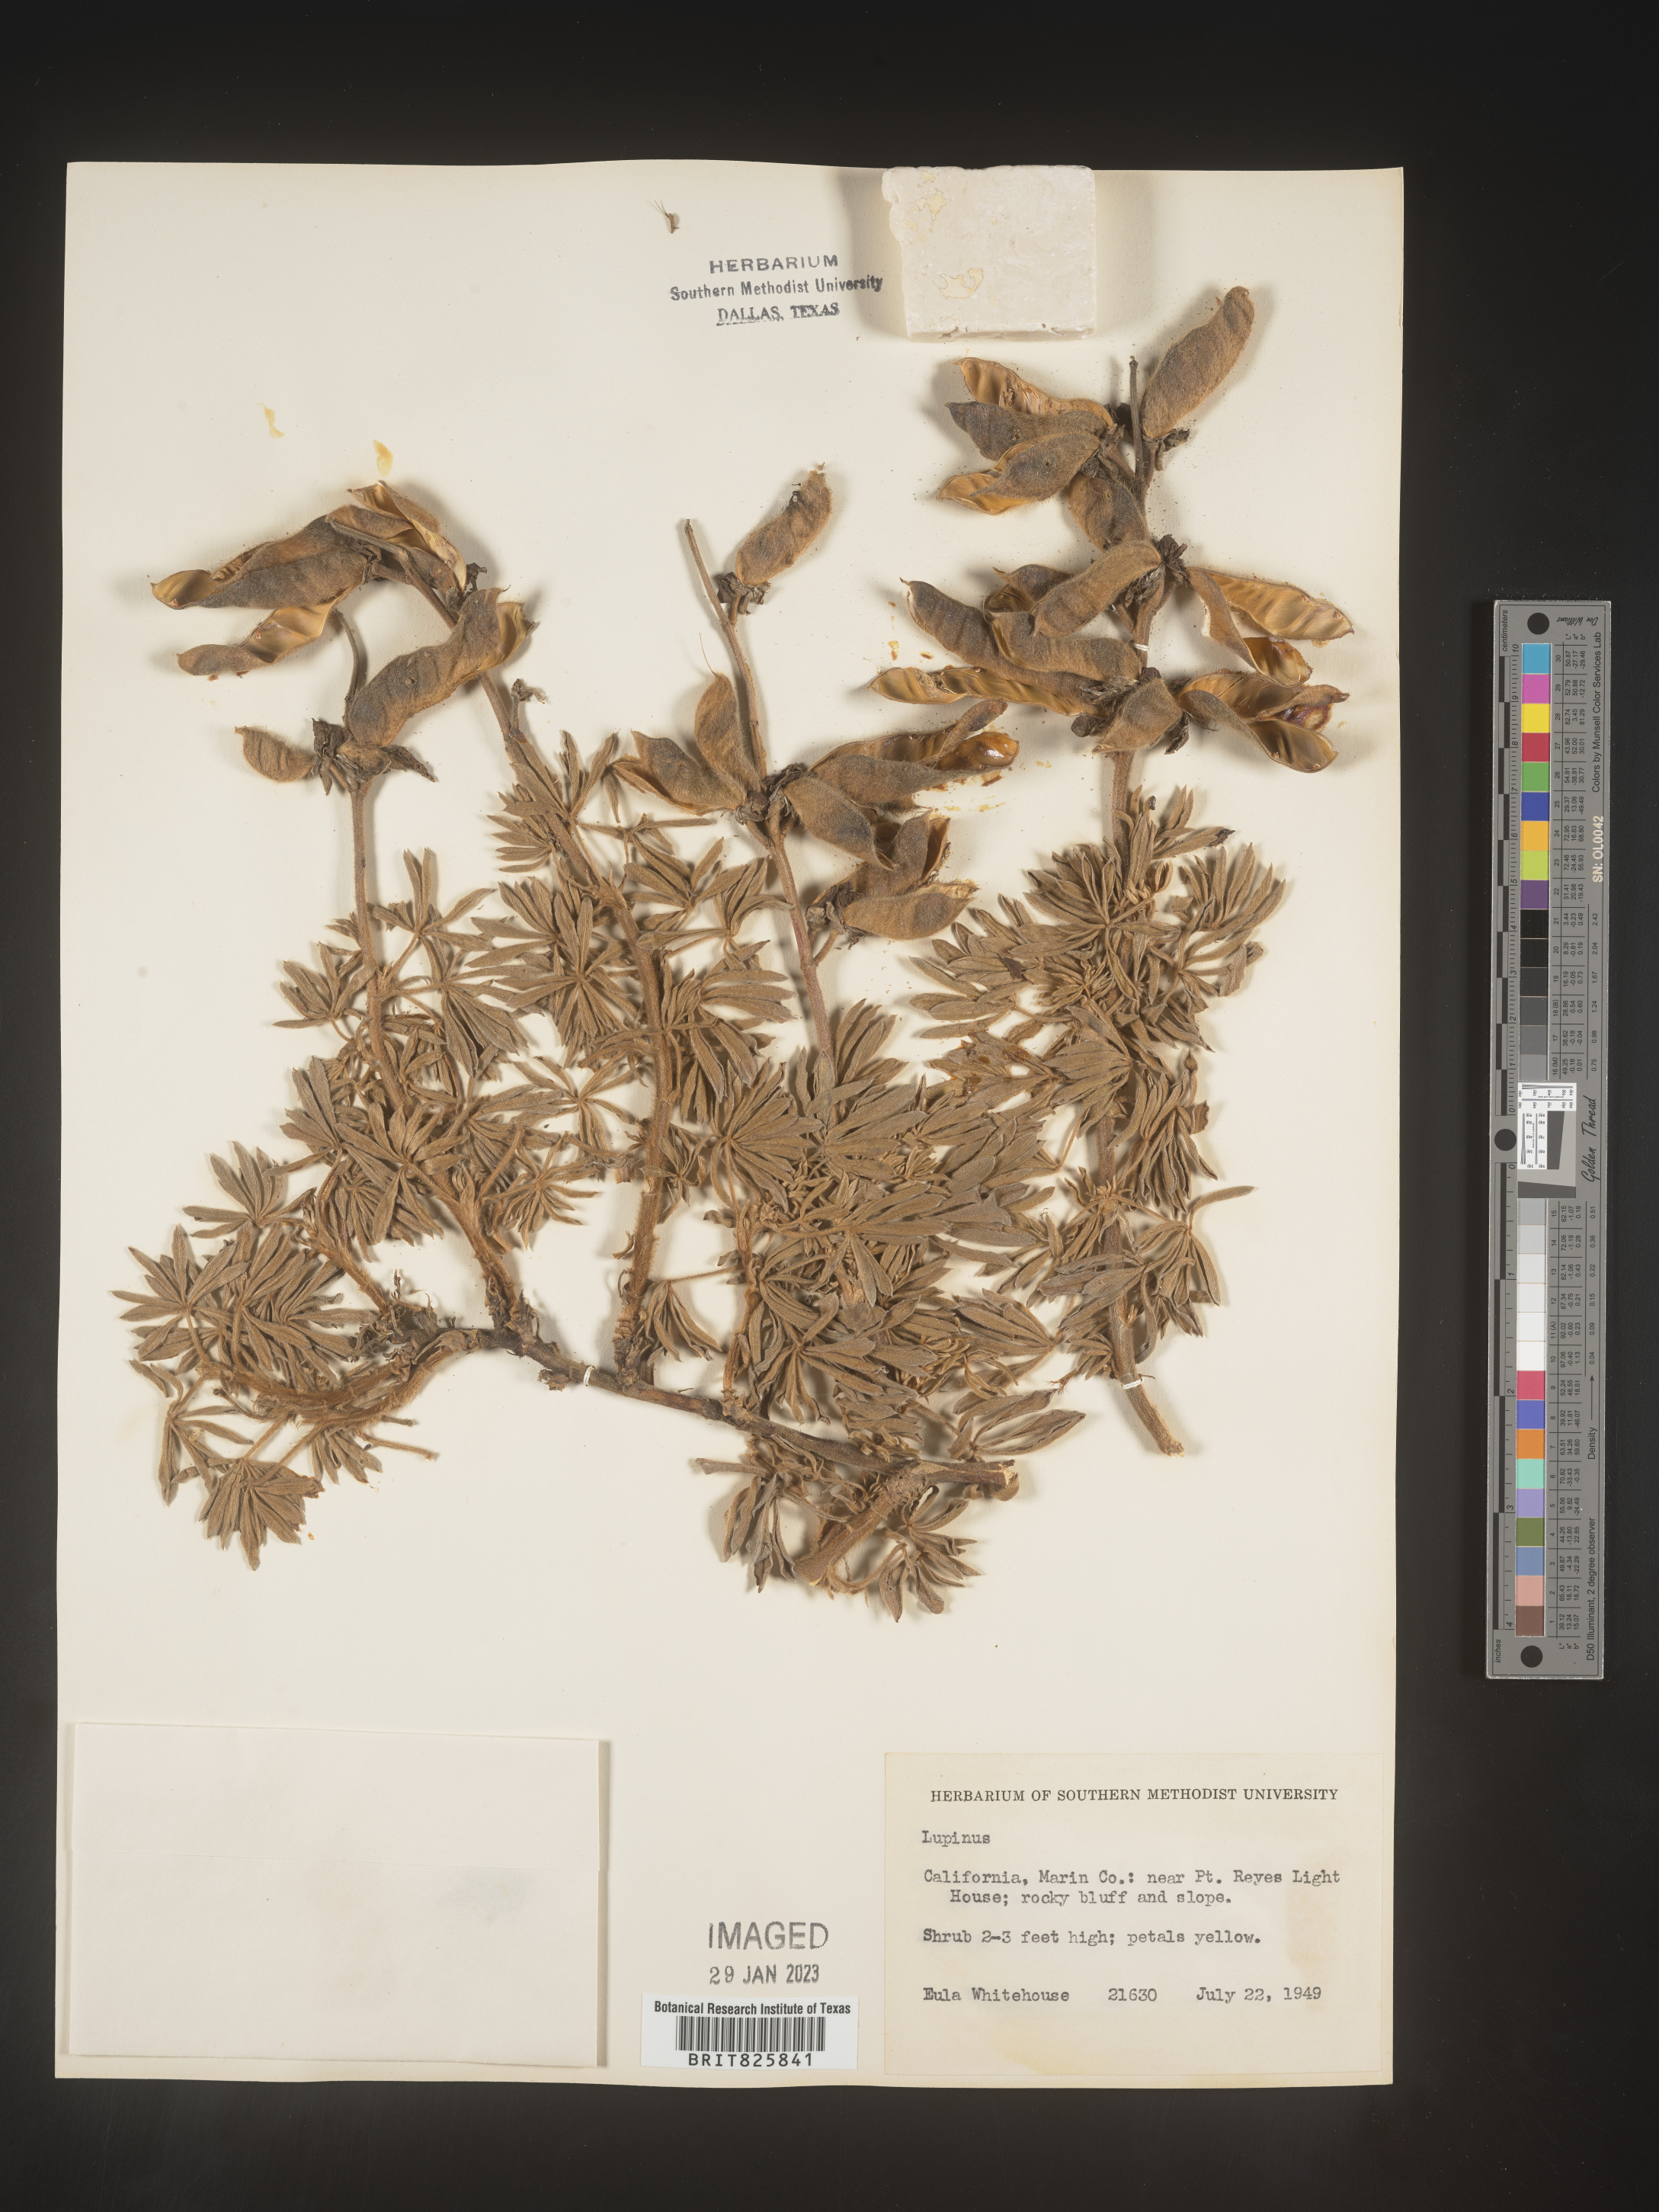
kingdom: Plantae
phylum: Tracheophyta
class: Magnoliopsida
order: Fabales
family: Fabaceae
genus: Lupinus
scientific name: Lupinus
